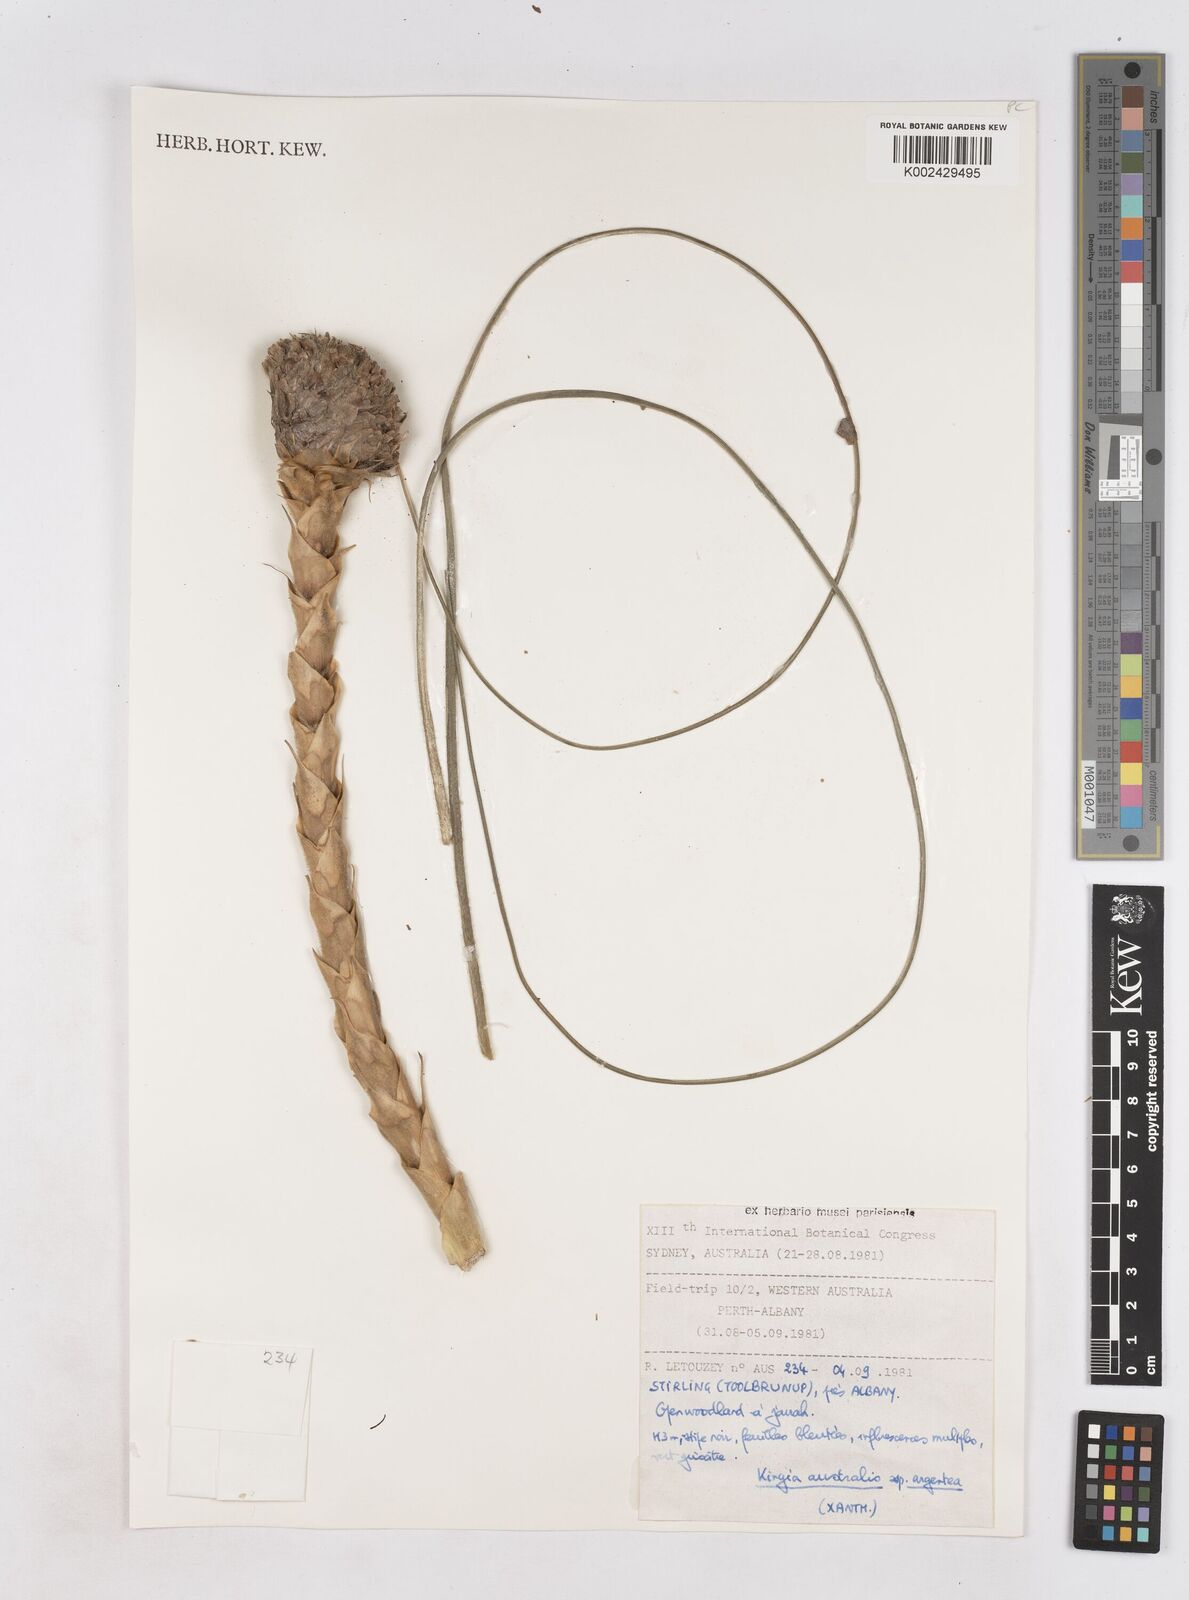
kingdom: Plantae
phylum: Tracheophyta
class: Liliopsida
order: Arecales
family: Dasypogonaceae
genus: Kingia
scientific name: Kingia australis
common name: Black gin
